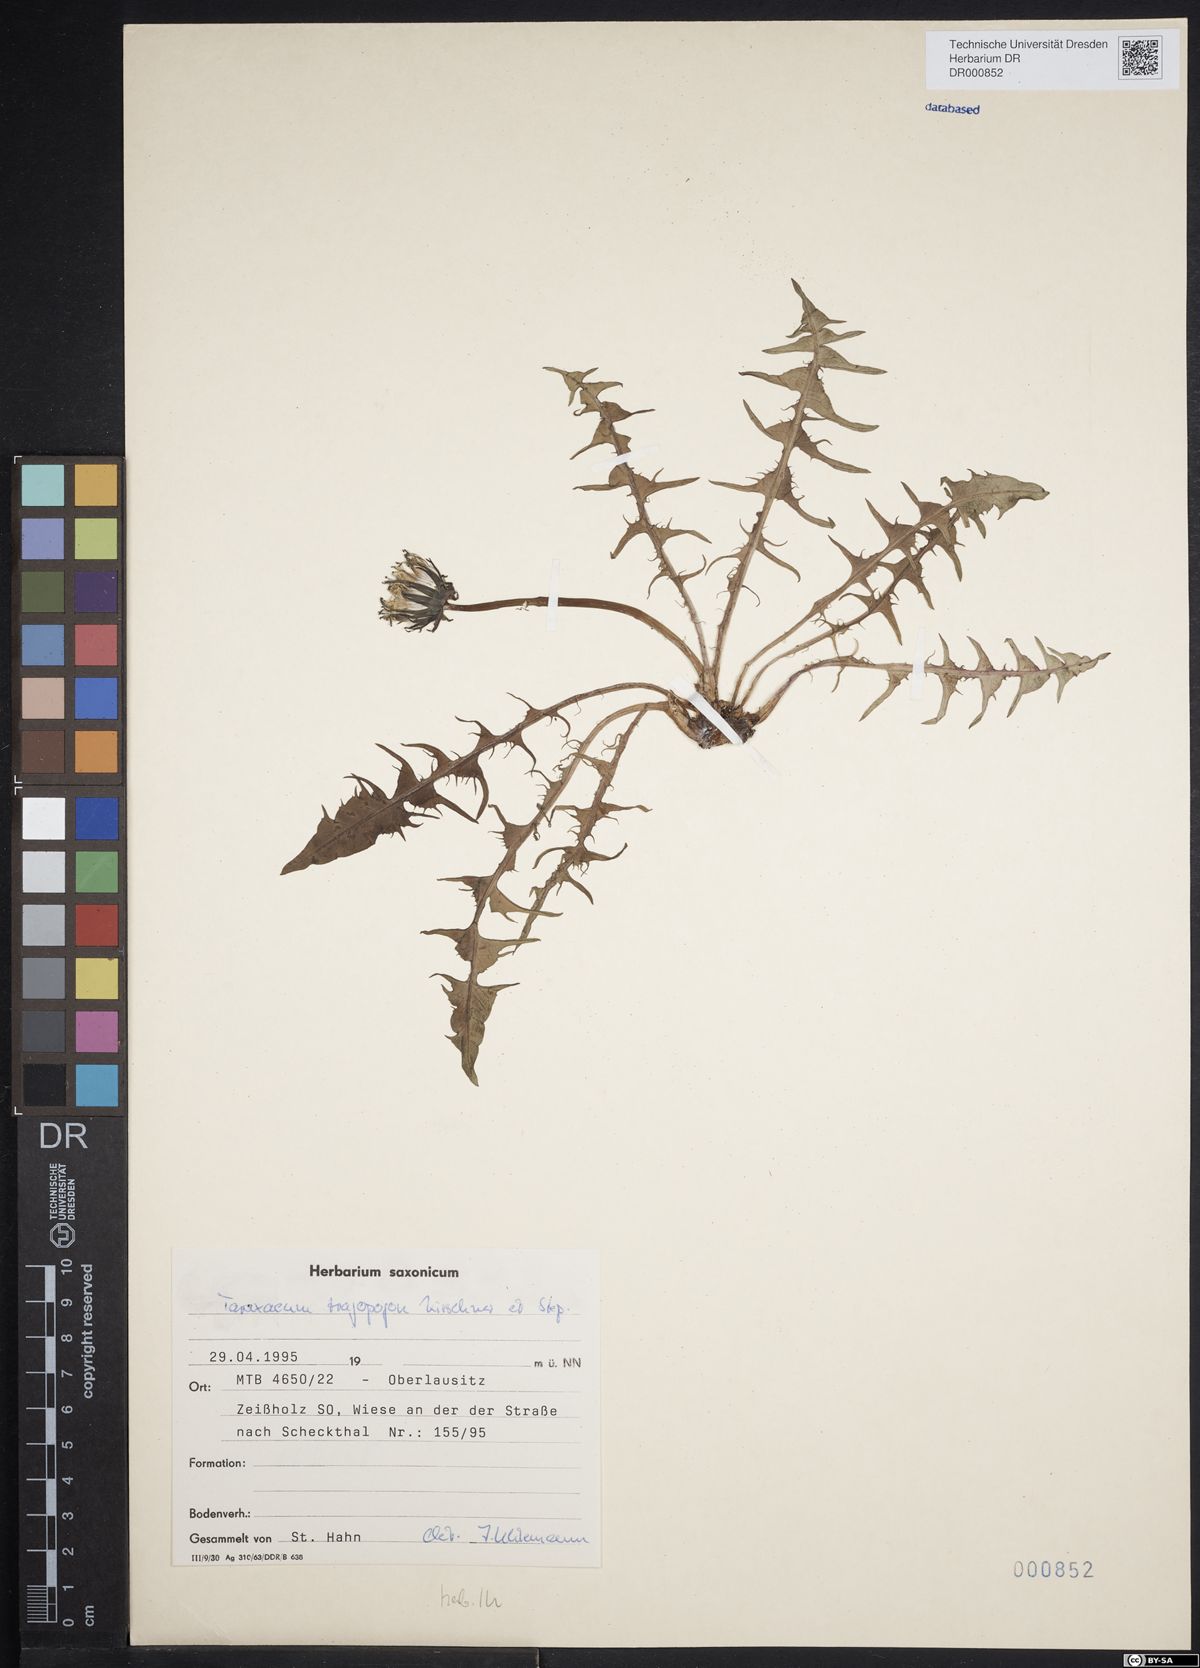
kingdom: Plantae
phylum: Tracheophyta
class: Magnoliopsida
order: Asterales
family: Asteraceae
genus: Taraxacum
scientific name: Taraxacum porrigentilobatum
